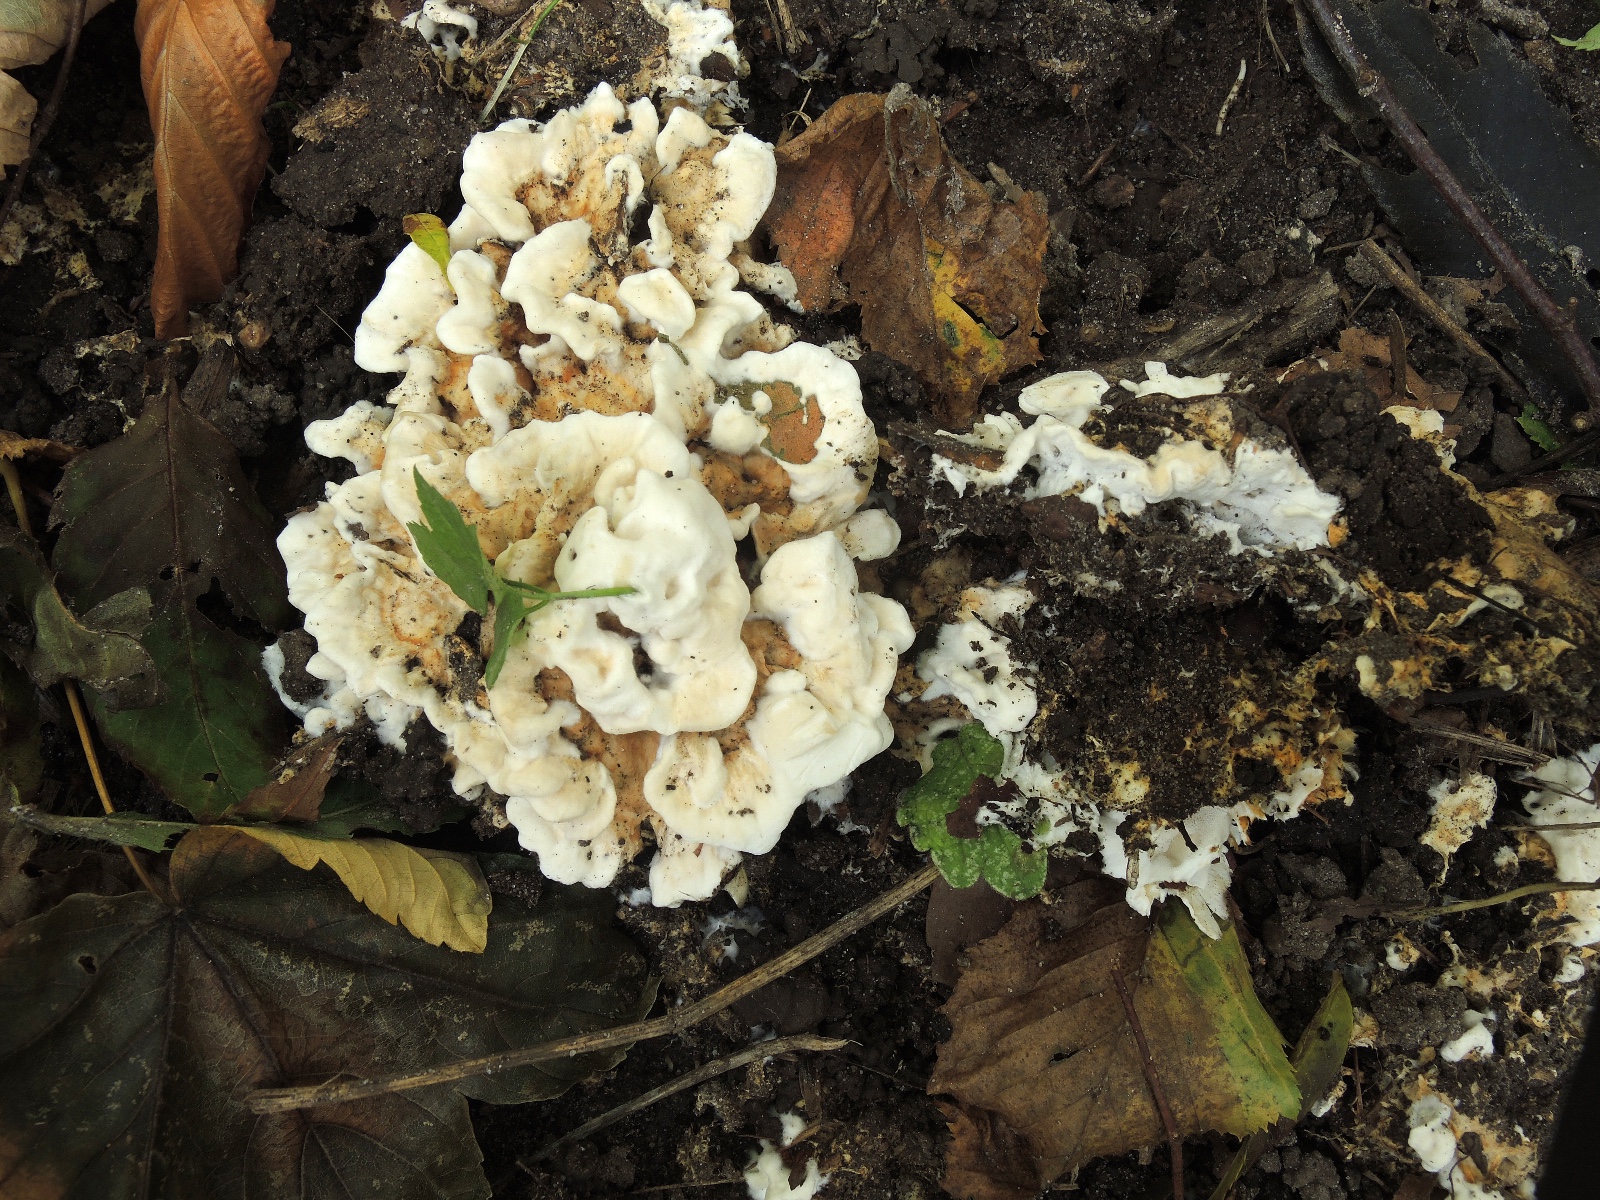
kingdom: Fungi
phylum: Basidiomycota
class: Agaricomycetes
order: Polyporales
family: Steccherinaceae
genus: Loweomyces
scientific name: Loweomyces wynneae
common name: krybende blødporesvamp
